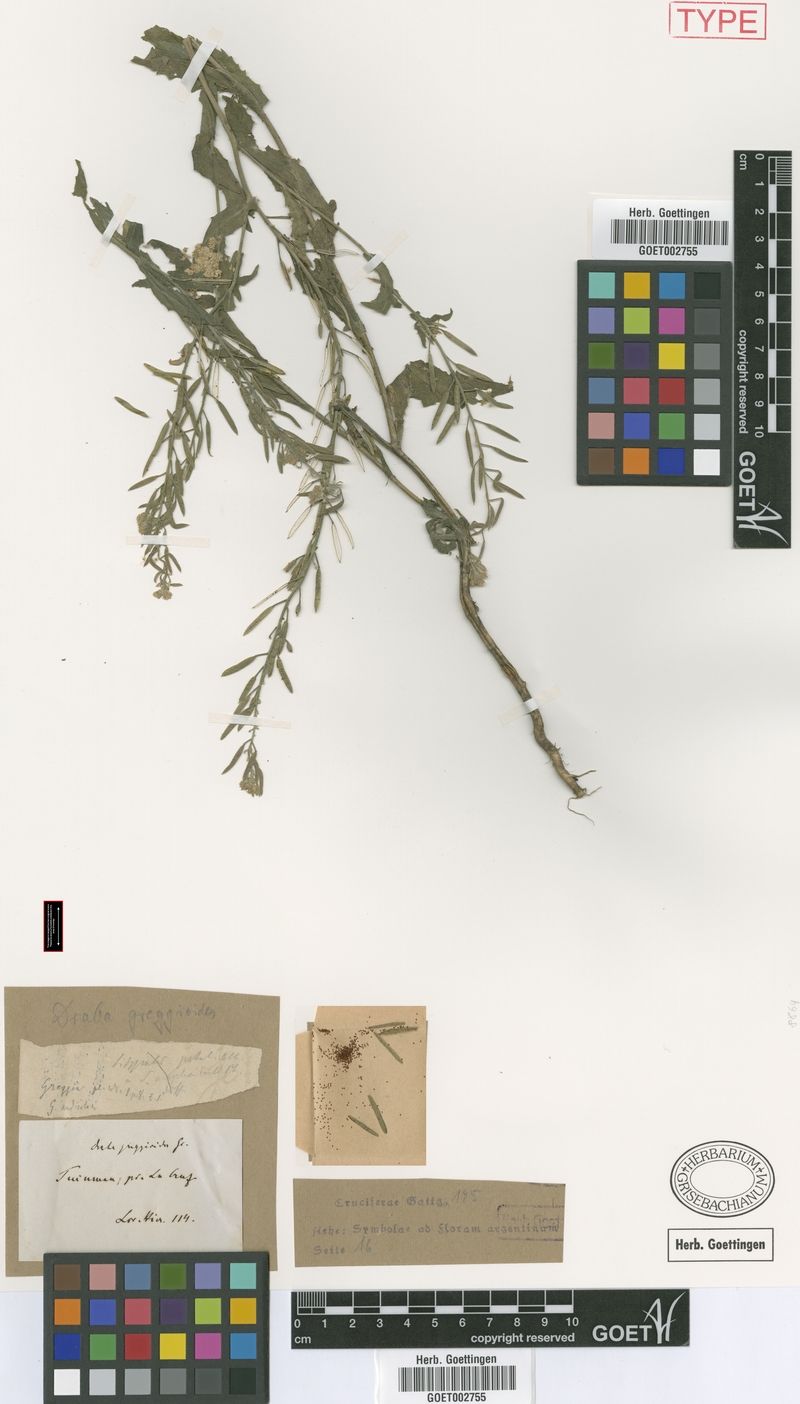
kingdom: Plantae
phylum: Tracheophyta
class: Magnoliopsida
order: Brassicales
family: Brassicaceae
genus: Exhalimolobos
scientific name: Exhalimolobos weddellii
